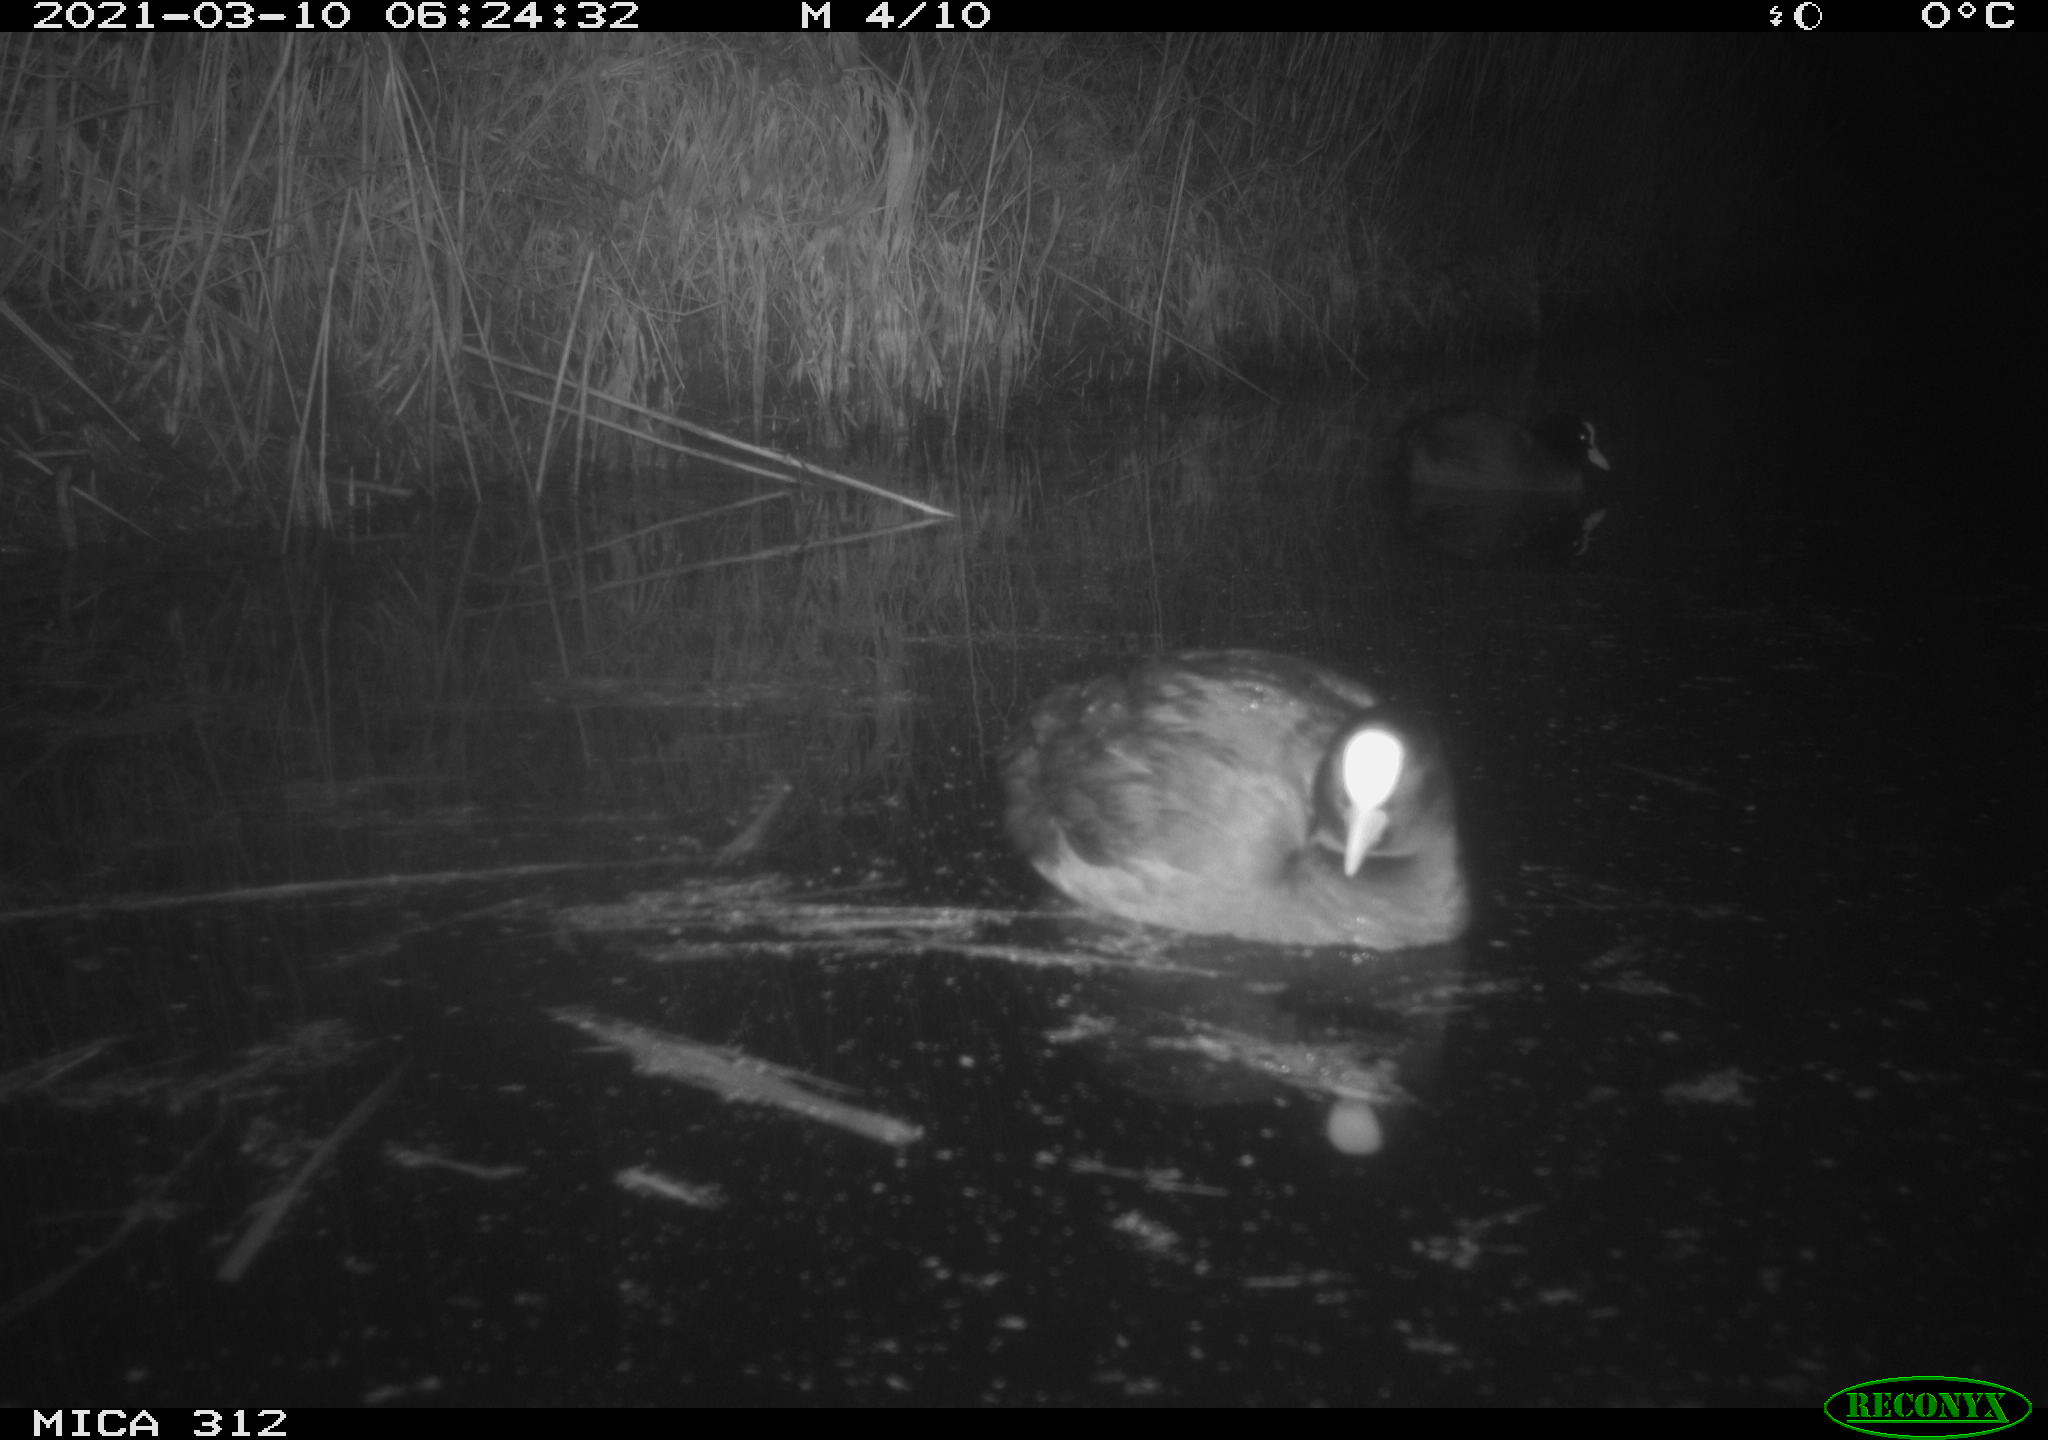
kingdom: Animalia
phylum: Chordata
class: Aves
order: Gruiformes
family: Rallidae
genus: Fulica
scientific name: Fulica atra
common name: Eurasian coot
